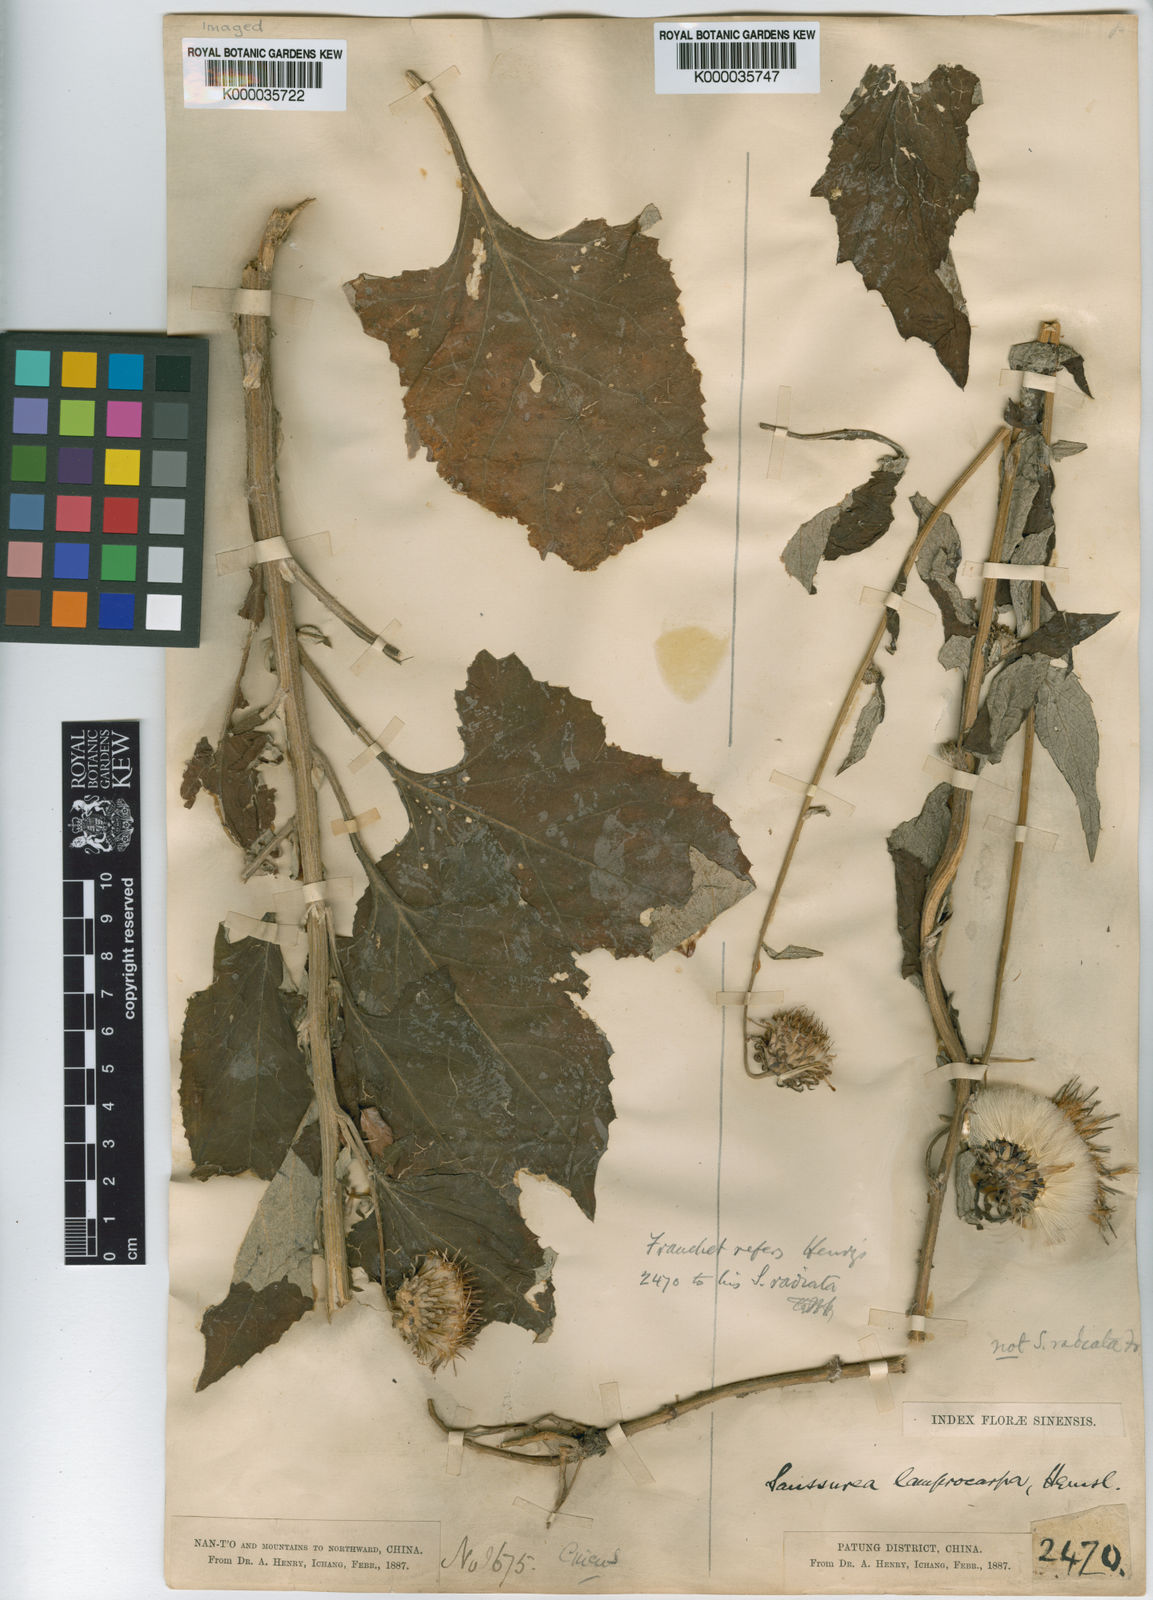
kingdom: Plantae
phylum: Tracheophyta
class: Magnoliopsida
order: Asterales
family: Asteraceae
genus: Jurinea
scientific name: Jurinea deltoidea
